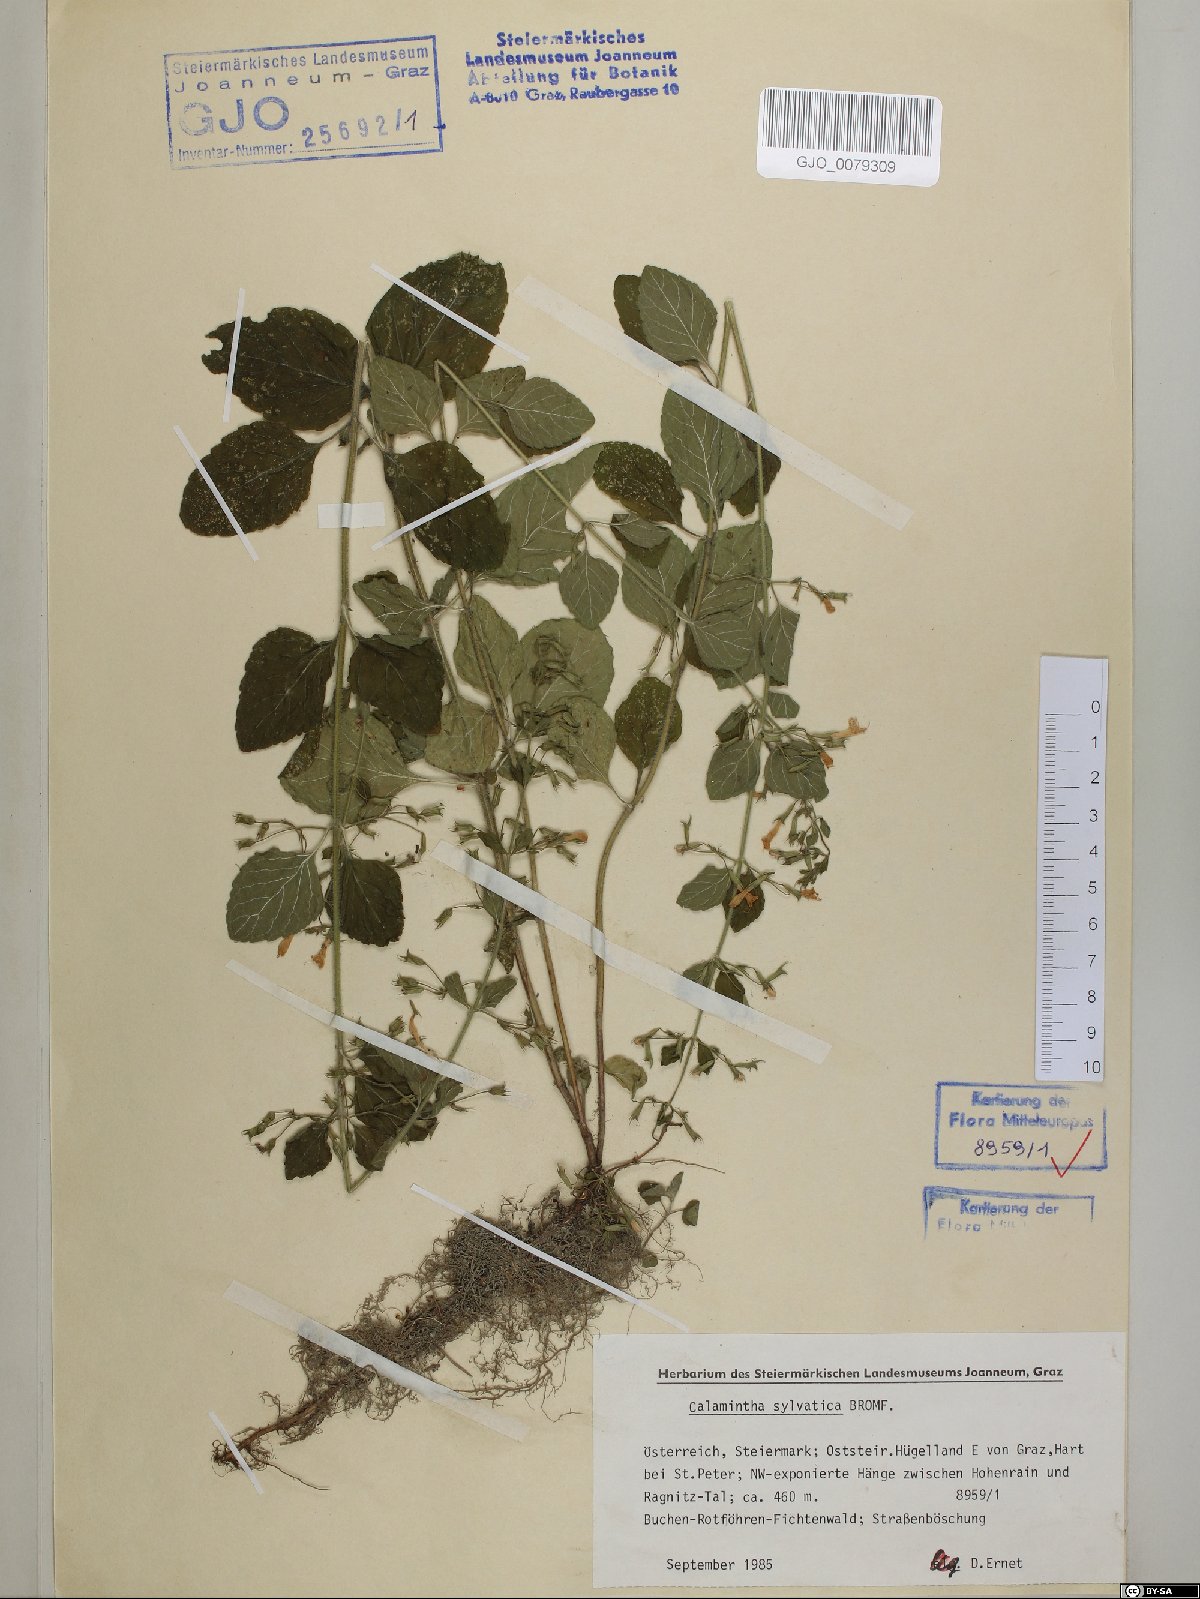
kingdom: Plantae
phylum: Tracheophyta
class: Magnoliopsida
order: Lamiales
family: Lamiaceae
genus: Clinopodium
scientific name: Clinopodium menthifolium
